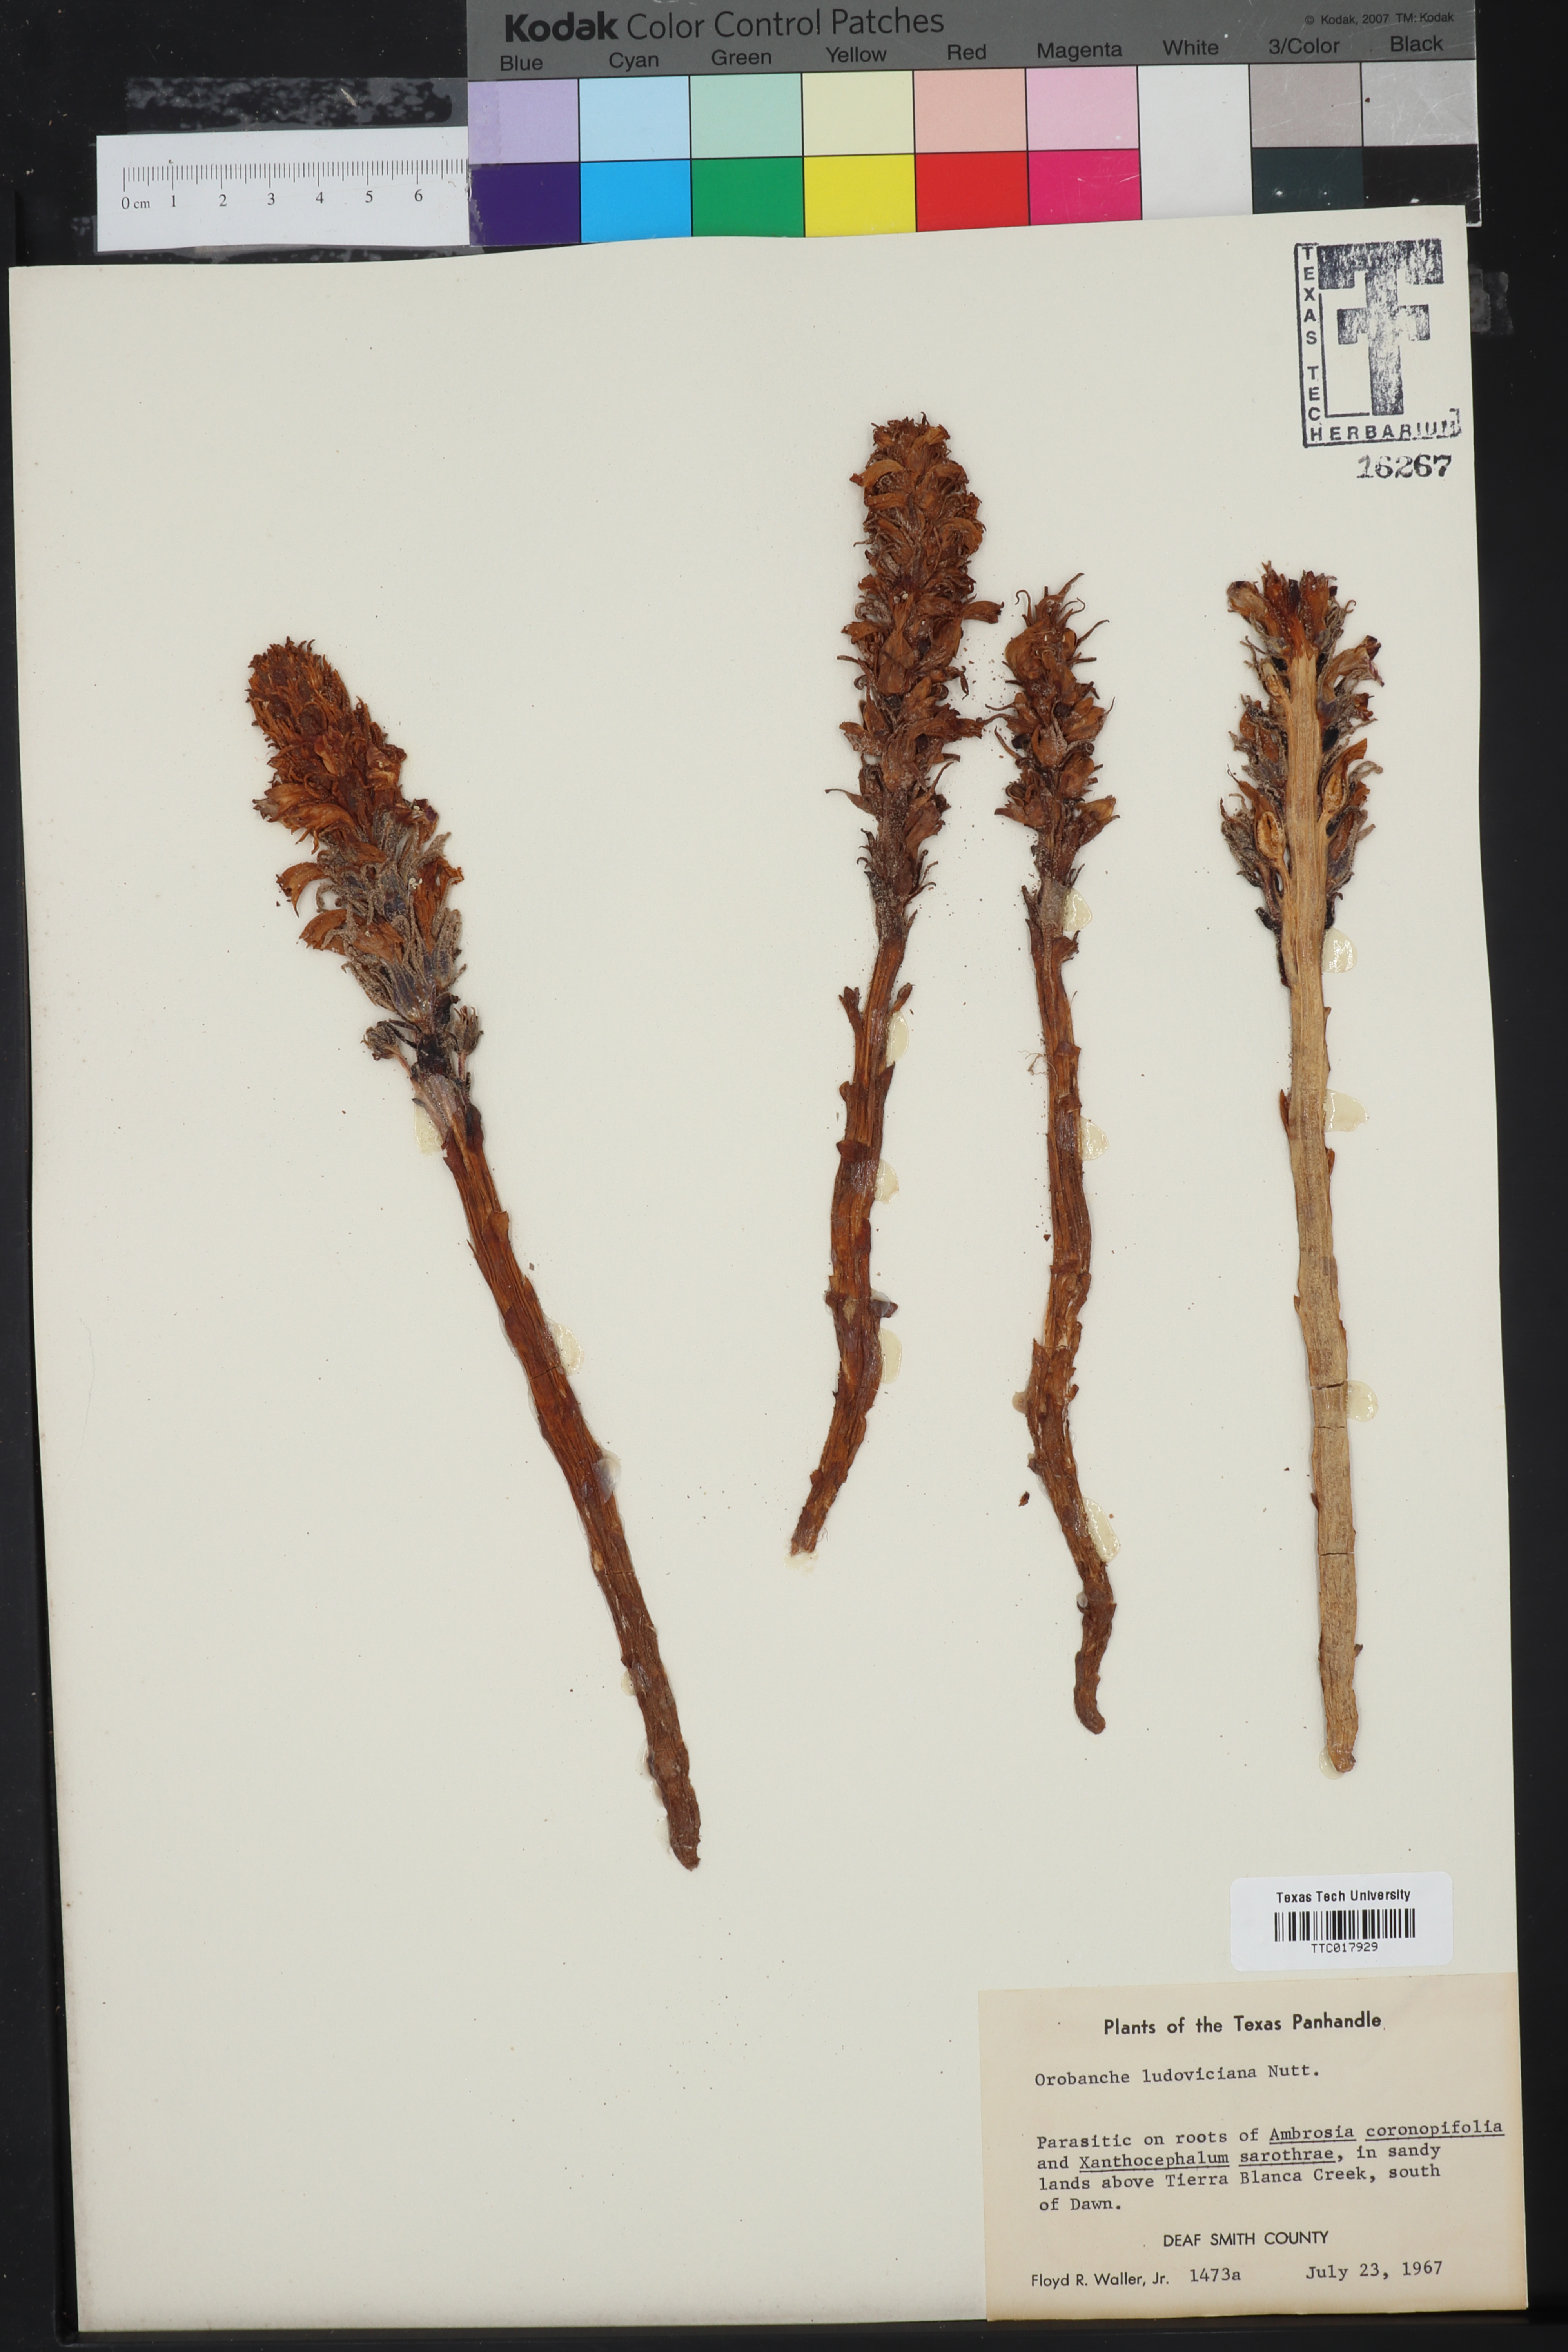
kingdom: Plantae
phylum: Tracheophyta
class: Magnoliopsida
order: Lamiales
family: Orobanchaceae
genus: Aphyllon
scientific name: Aphyllon ludovicianum
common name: Louisiana broomrape
